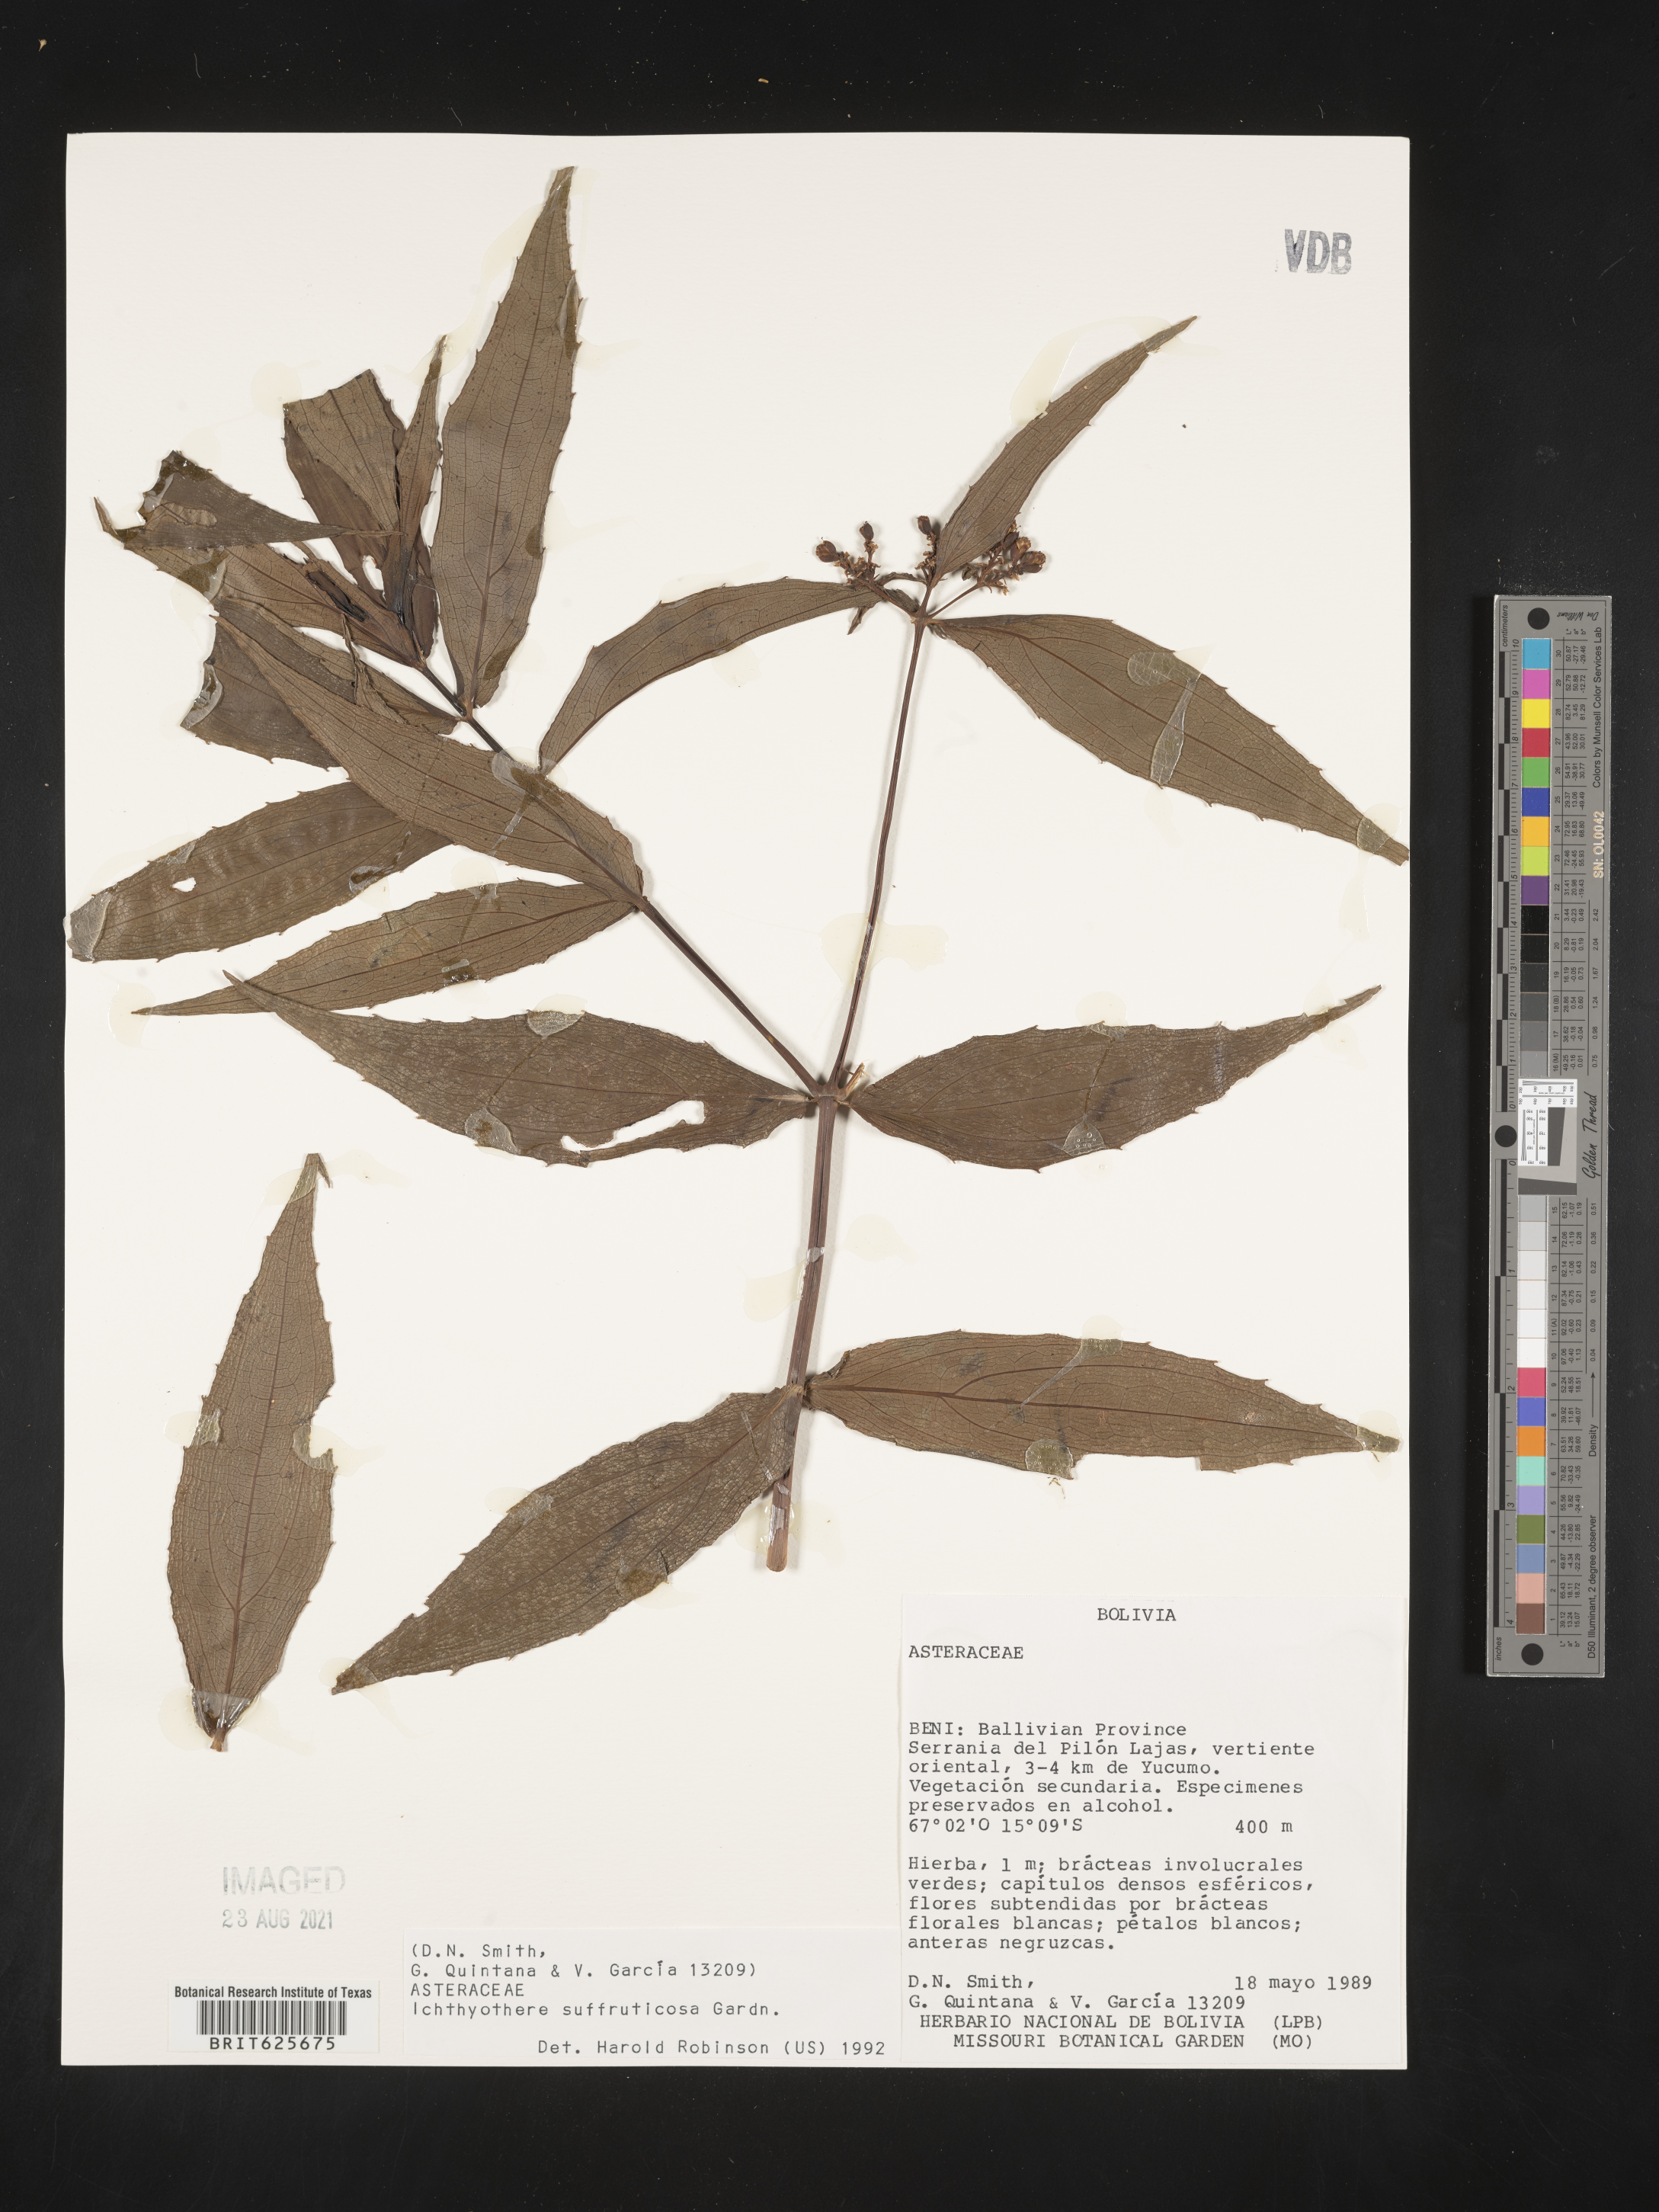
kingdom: Plantae
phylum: Tracheophyta
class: Magnoliopsida
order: Asterales
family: Asteraceae
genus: Ichthyothere
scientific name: Ichthyothere suffruticosa
